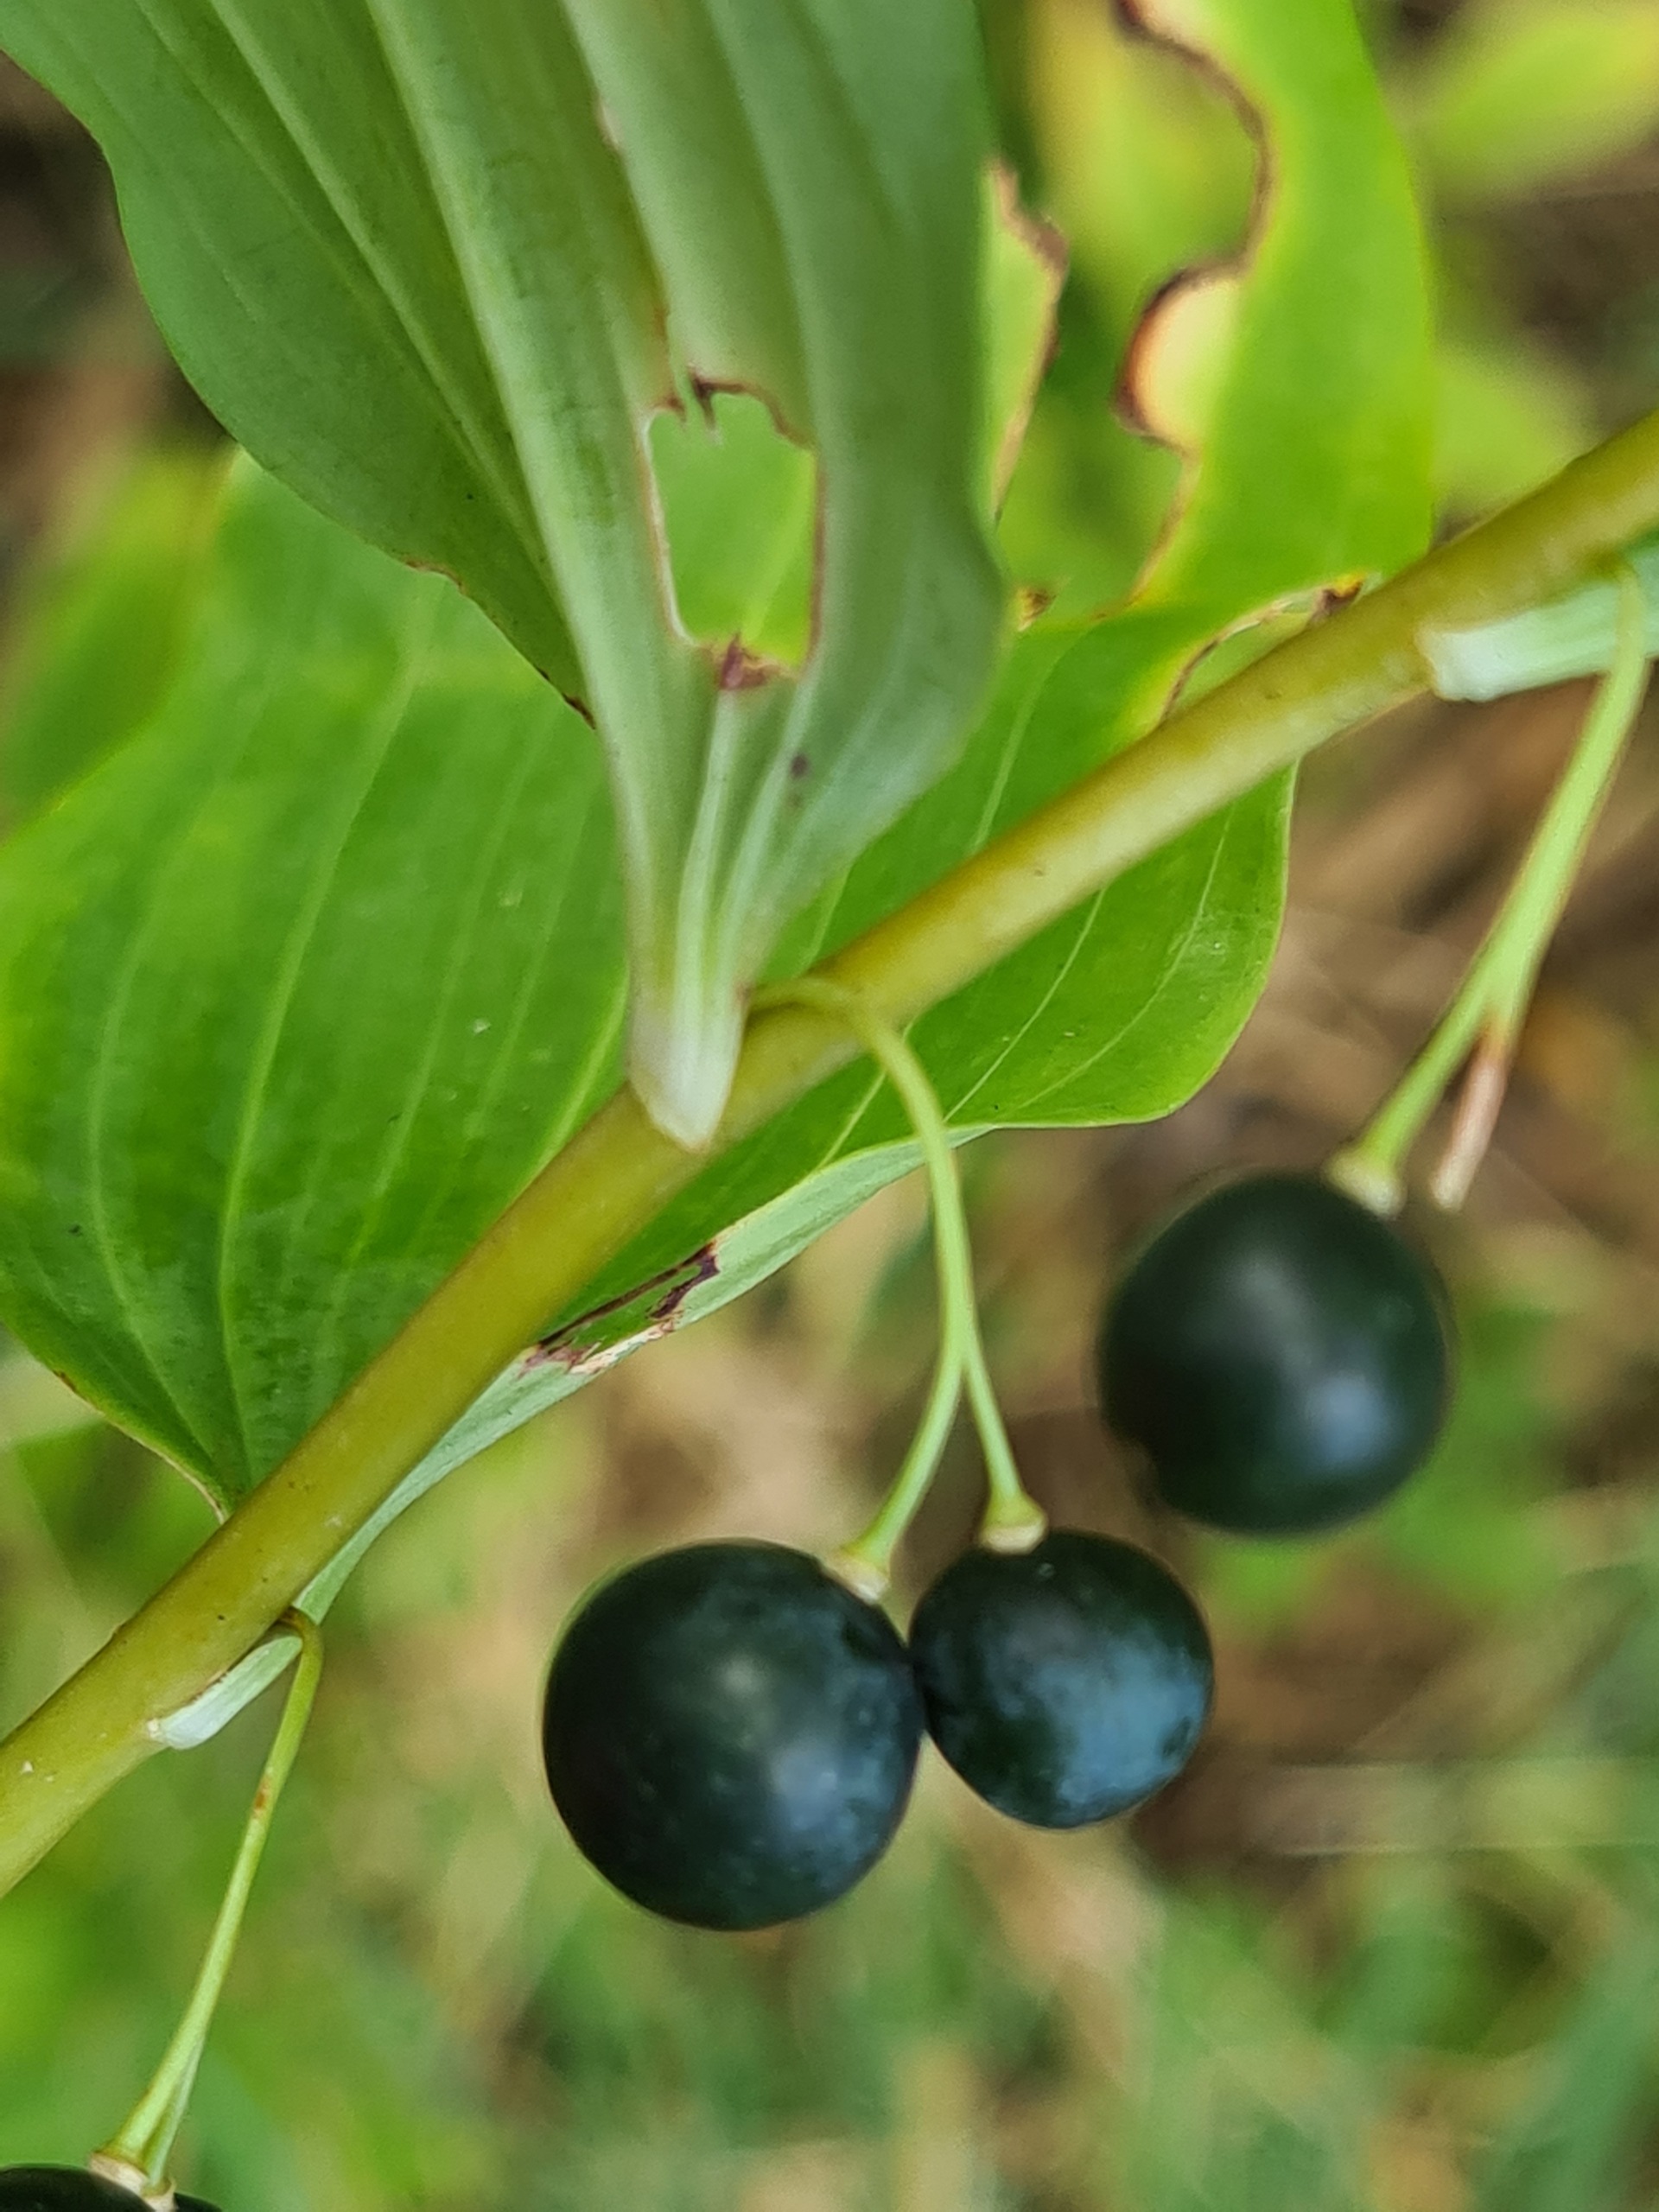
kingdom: Plantae
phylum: Tracheophyta
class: Liliopsida
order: Asparagales
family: Asparagaceae
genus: Polygonatum
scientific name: Polygonatum multiflorum
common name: Stor konval
